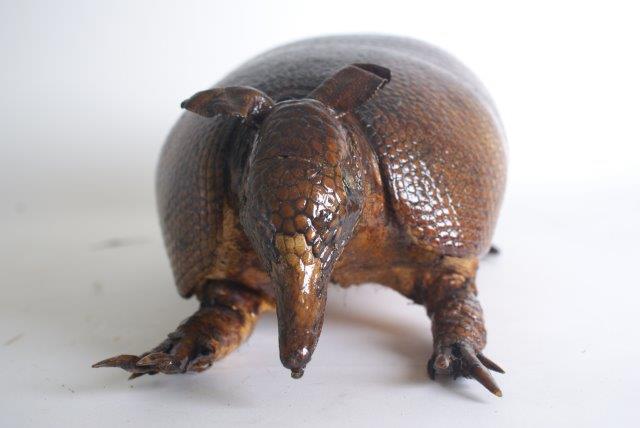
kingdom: Animalia
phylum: Chordata
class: Mammalia
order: Cingulata
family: Dasypodidae
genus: Dasypus
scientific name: Dasypus novemcinctus
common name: Nine-banded Armadillo
